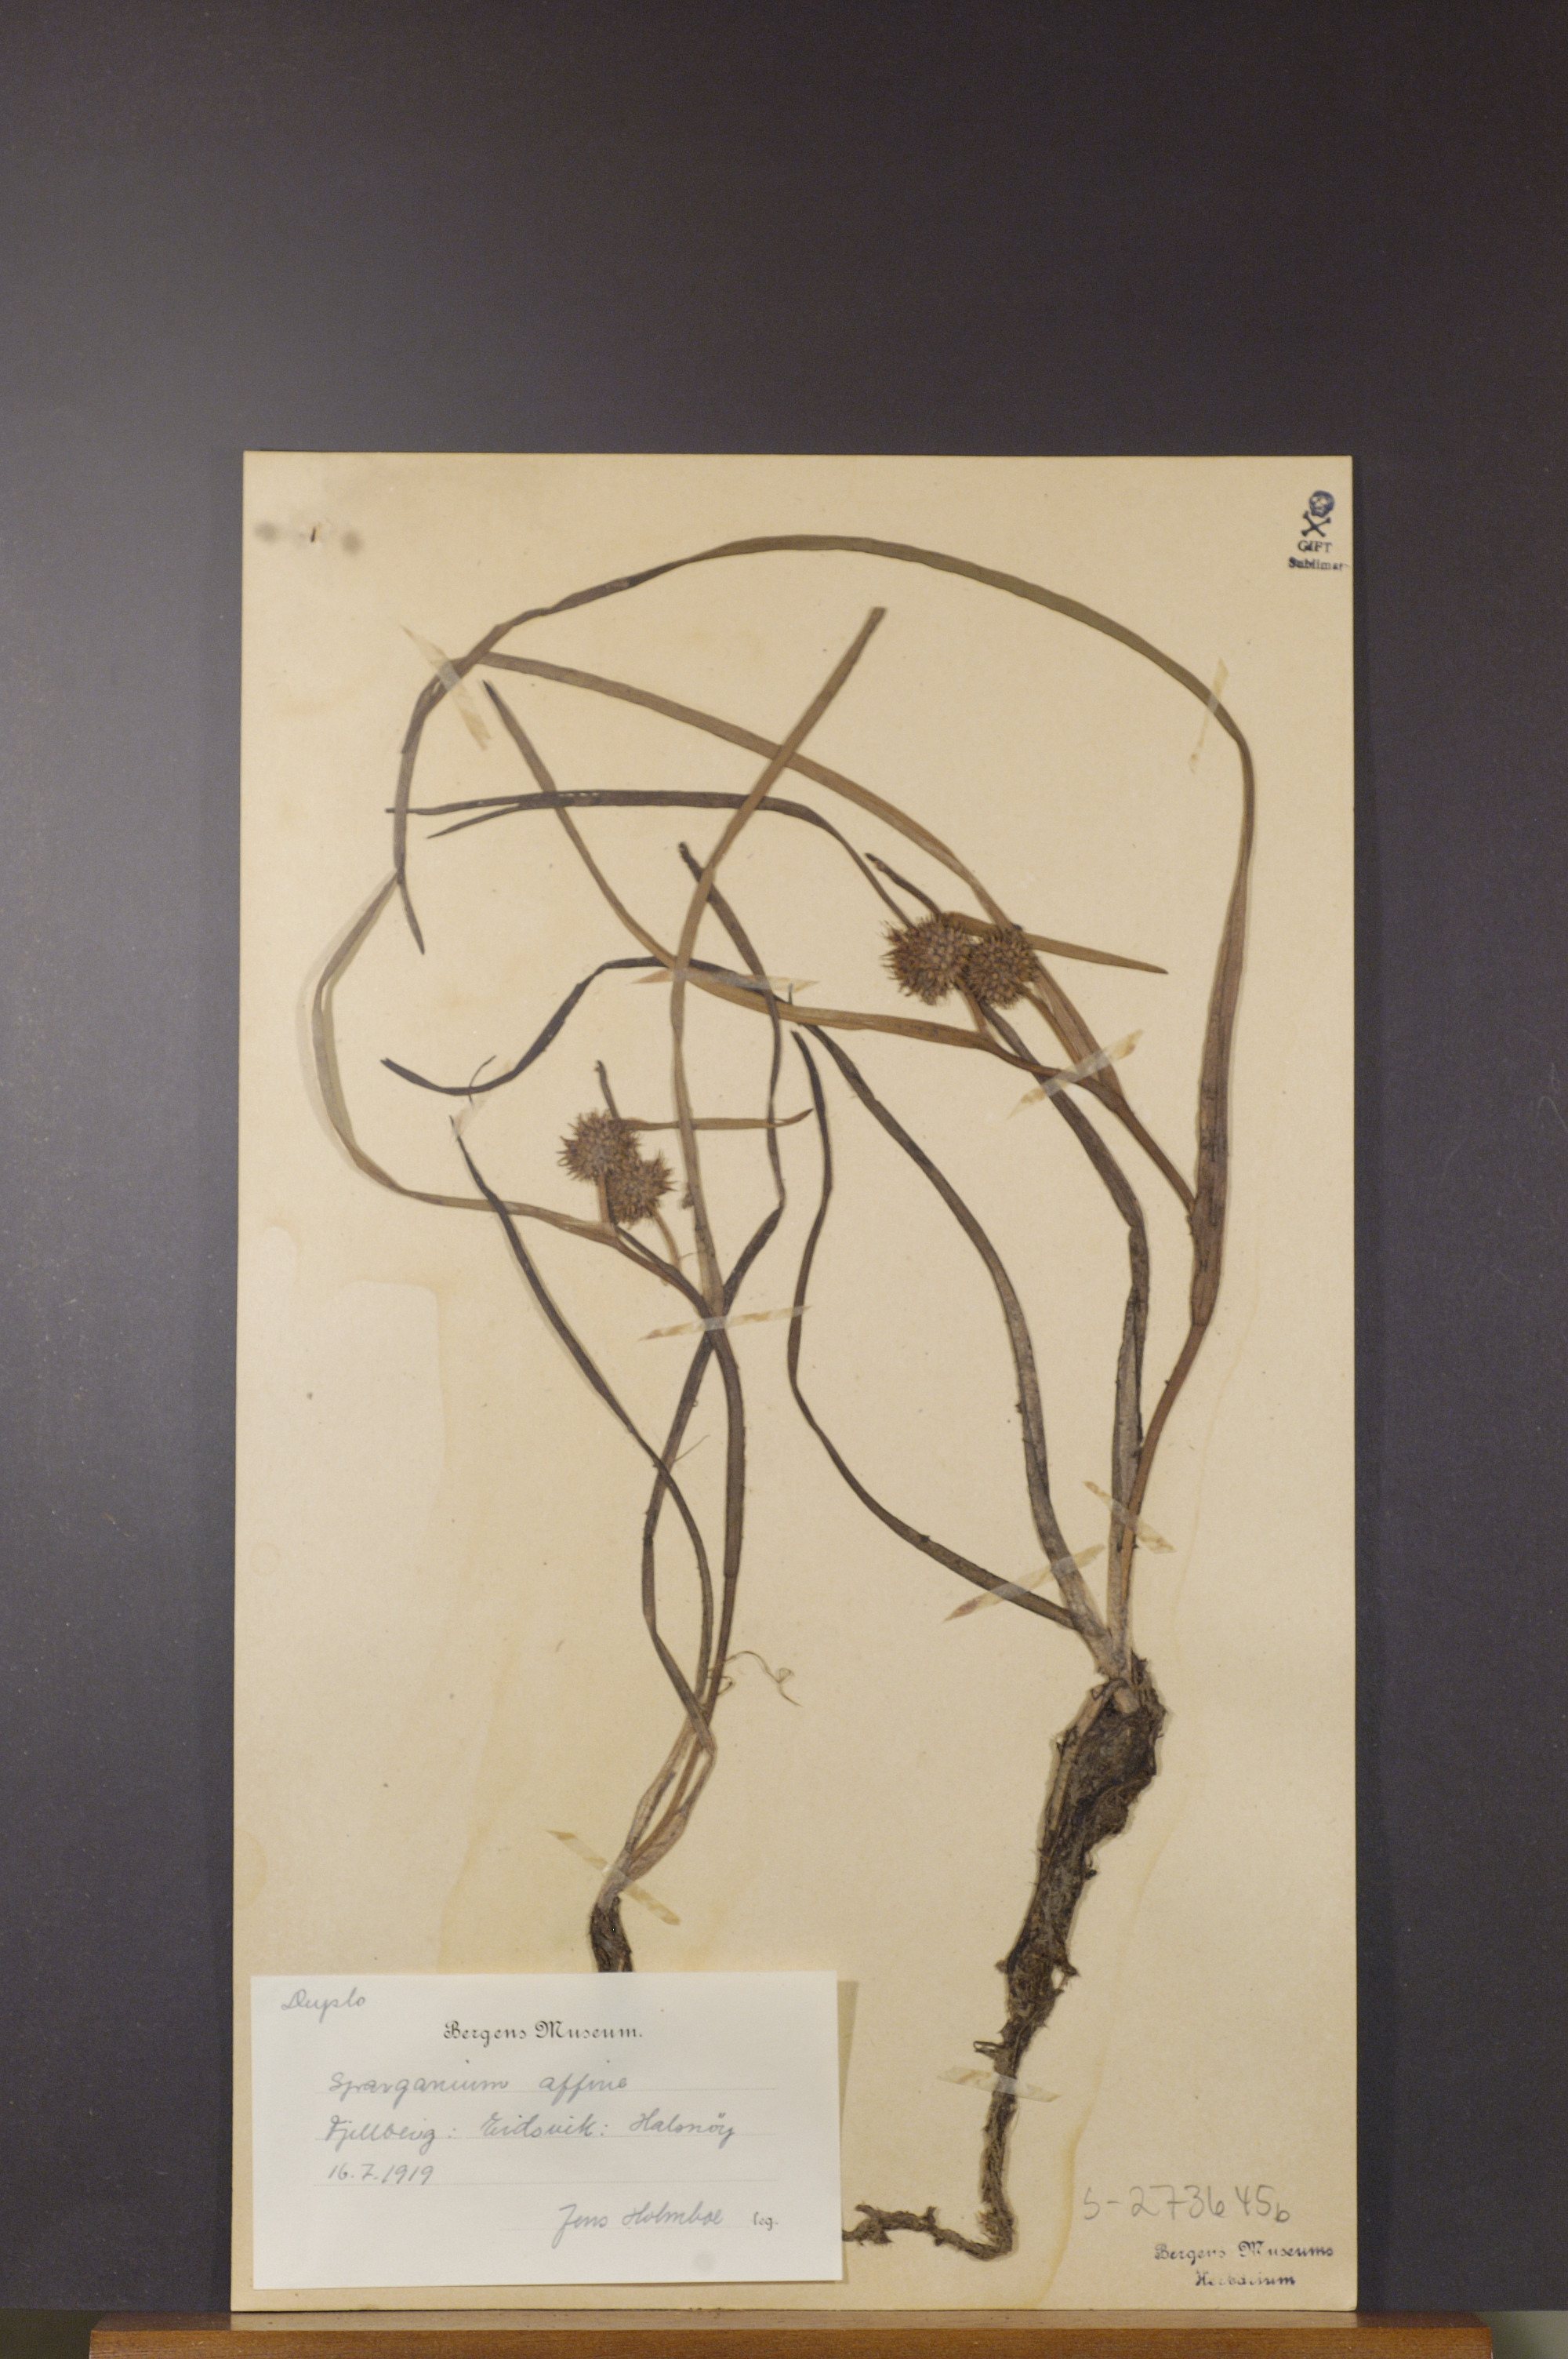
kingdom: Plantae
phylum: Tracheophyta
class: Liliopsida
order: Poales
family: Typhaceae
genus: Sparganium
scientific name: Sparganium angustifolium
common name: Floating bur-reed
